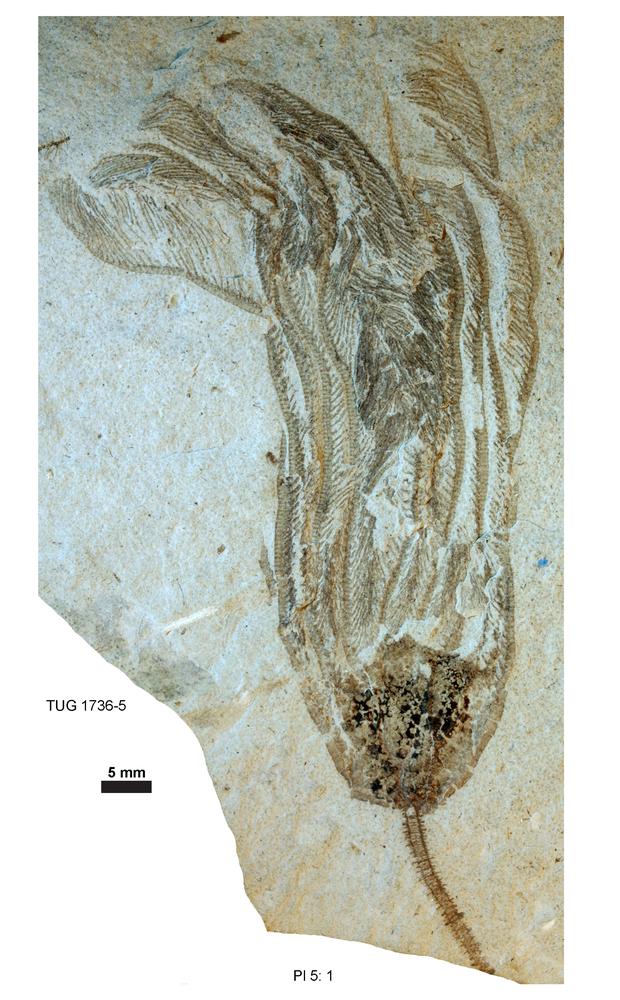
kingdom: Animalia
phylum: Echinodermata
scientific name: Echinodermata
